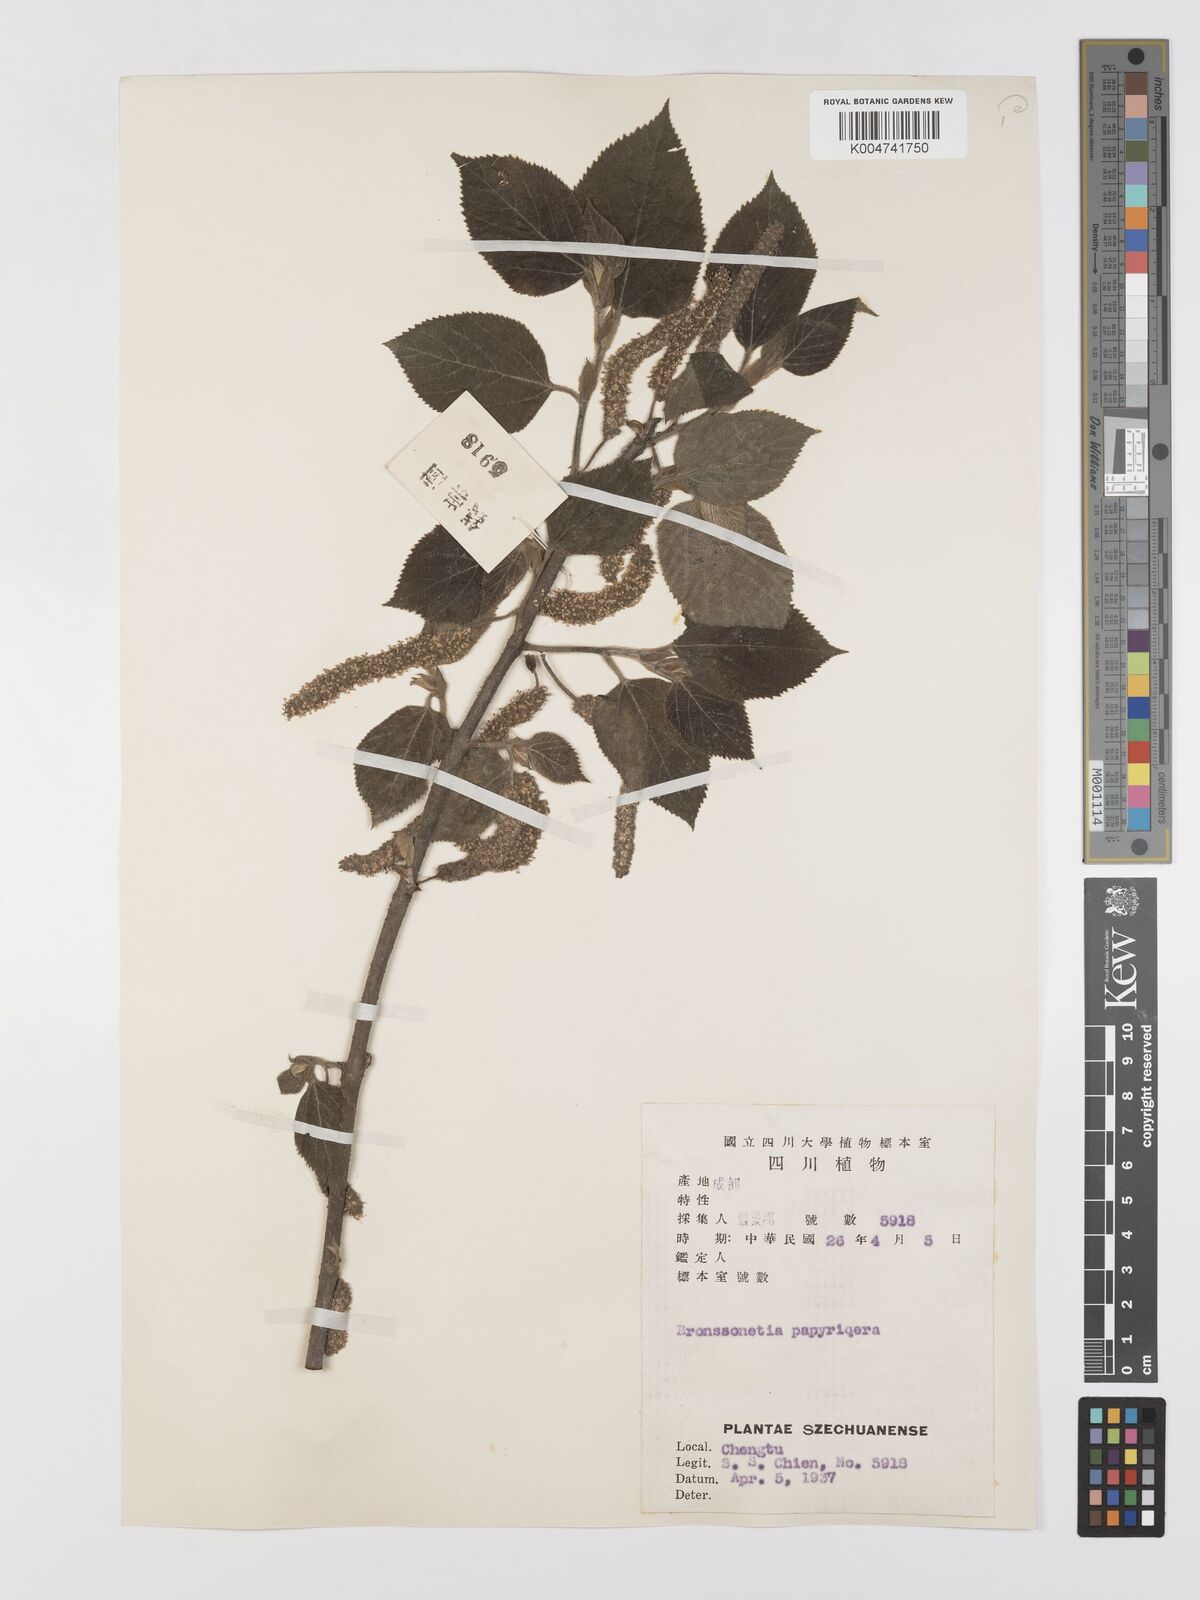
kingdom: Plantae
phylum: Tracheophyta
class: Magnoliopsida
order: Rosales
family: Moraceae
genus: Broussonetia
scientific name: Broussonetia
